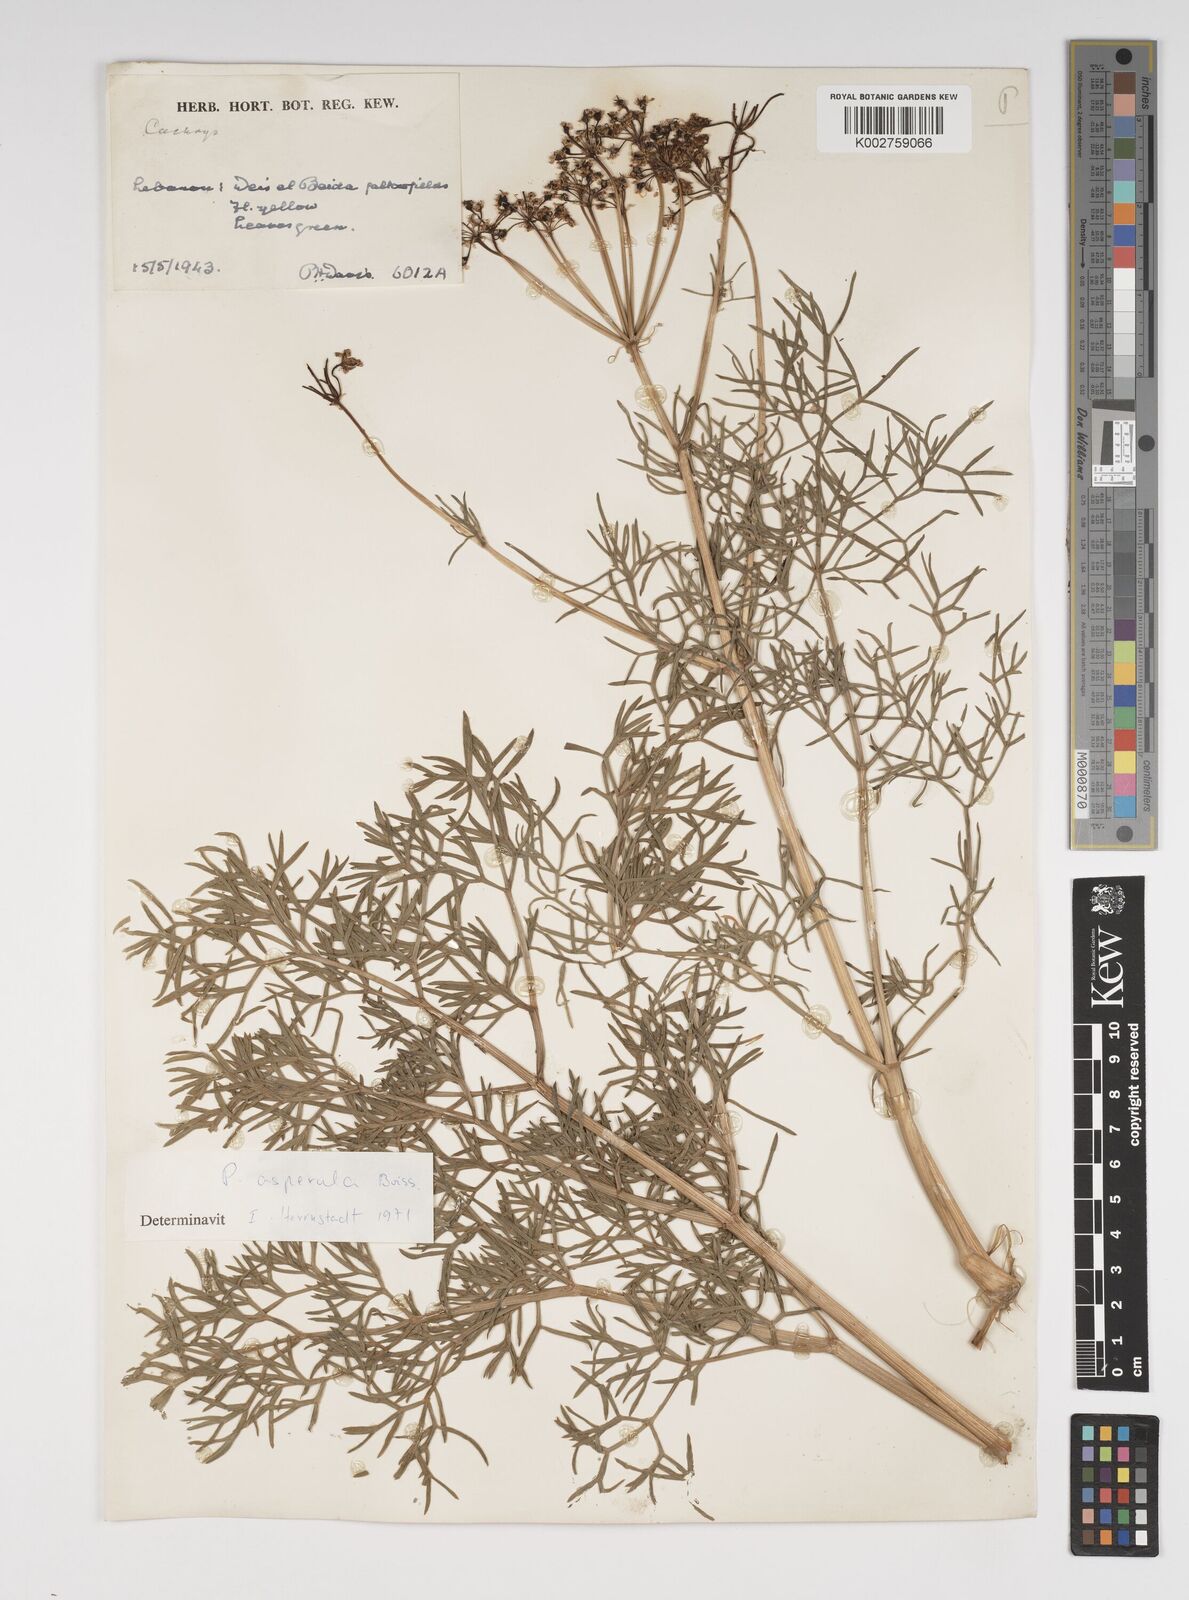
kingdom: Plantae
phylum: Tracheophyta
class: Magnoliopsida
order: Apiales
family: Apiaceae
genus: Prangos
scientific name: Prangos asperula
